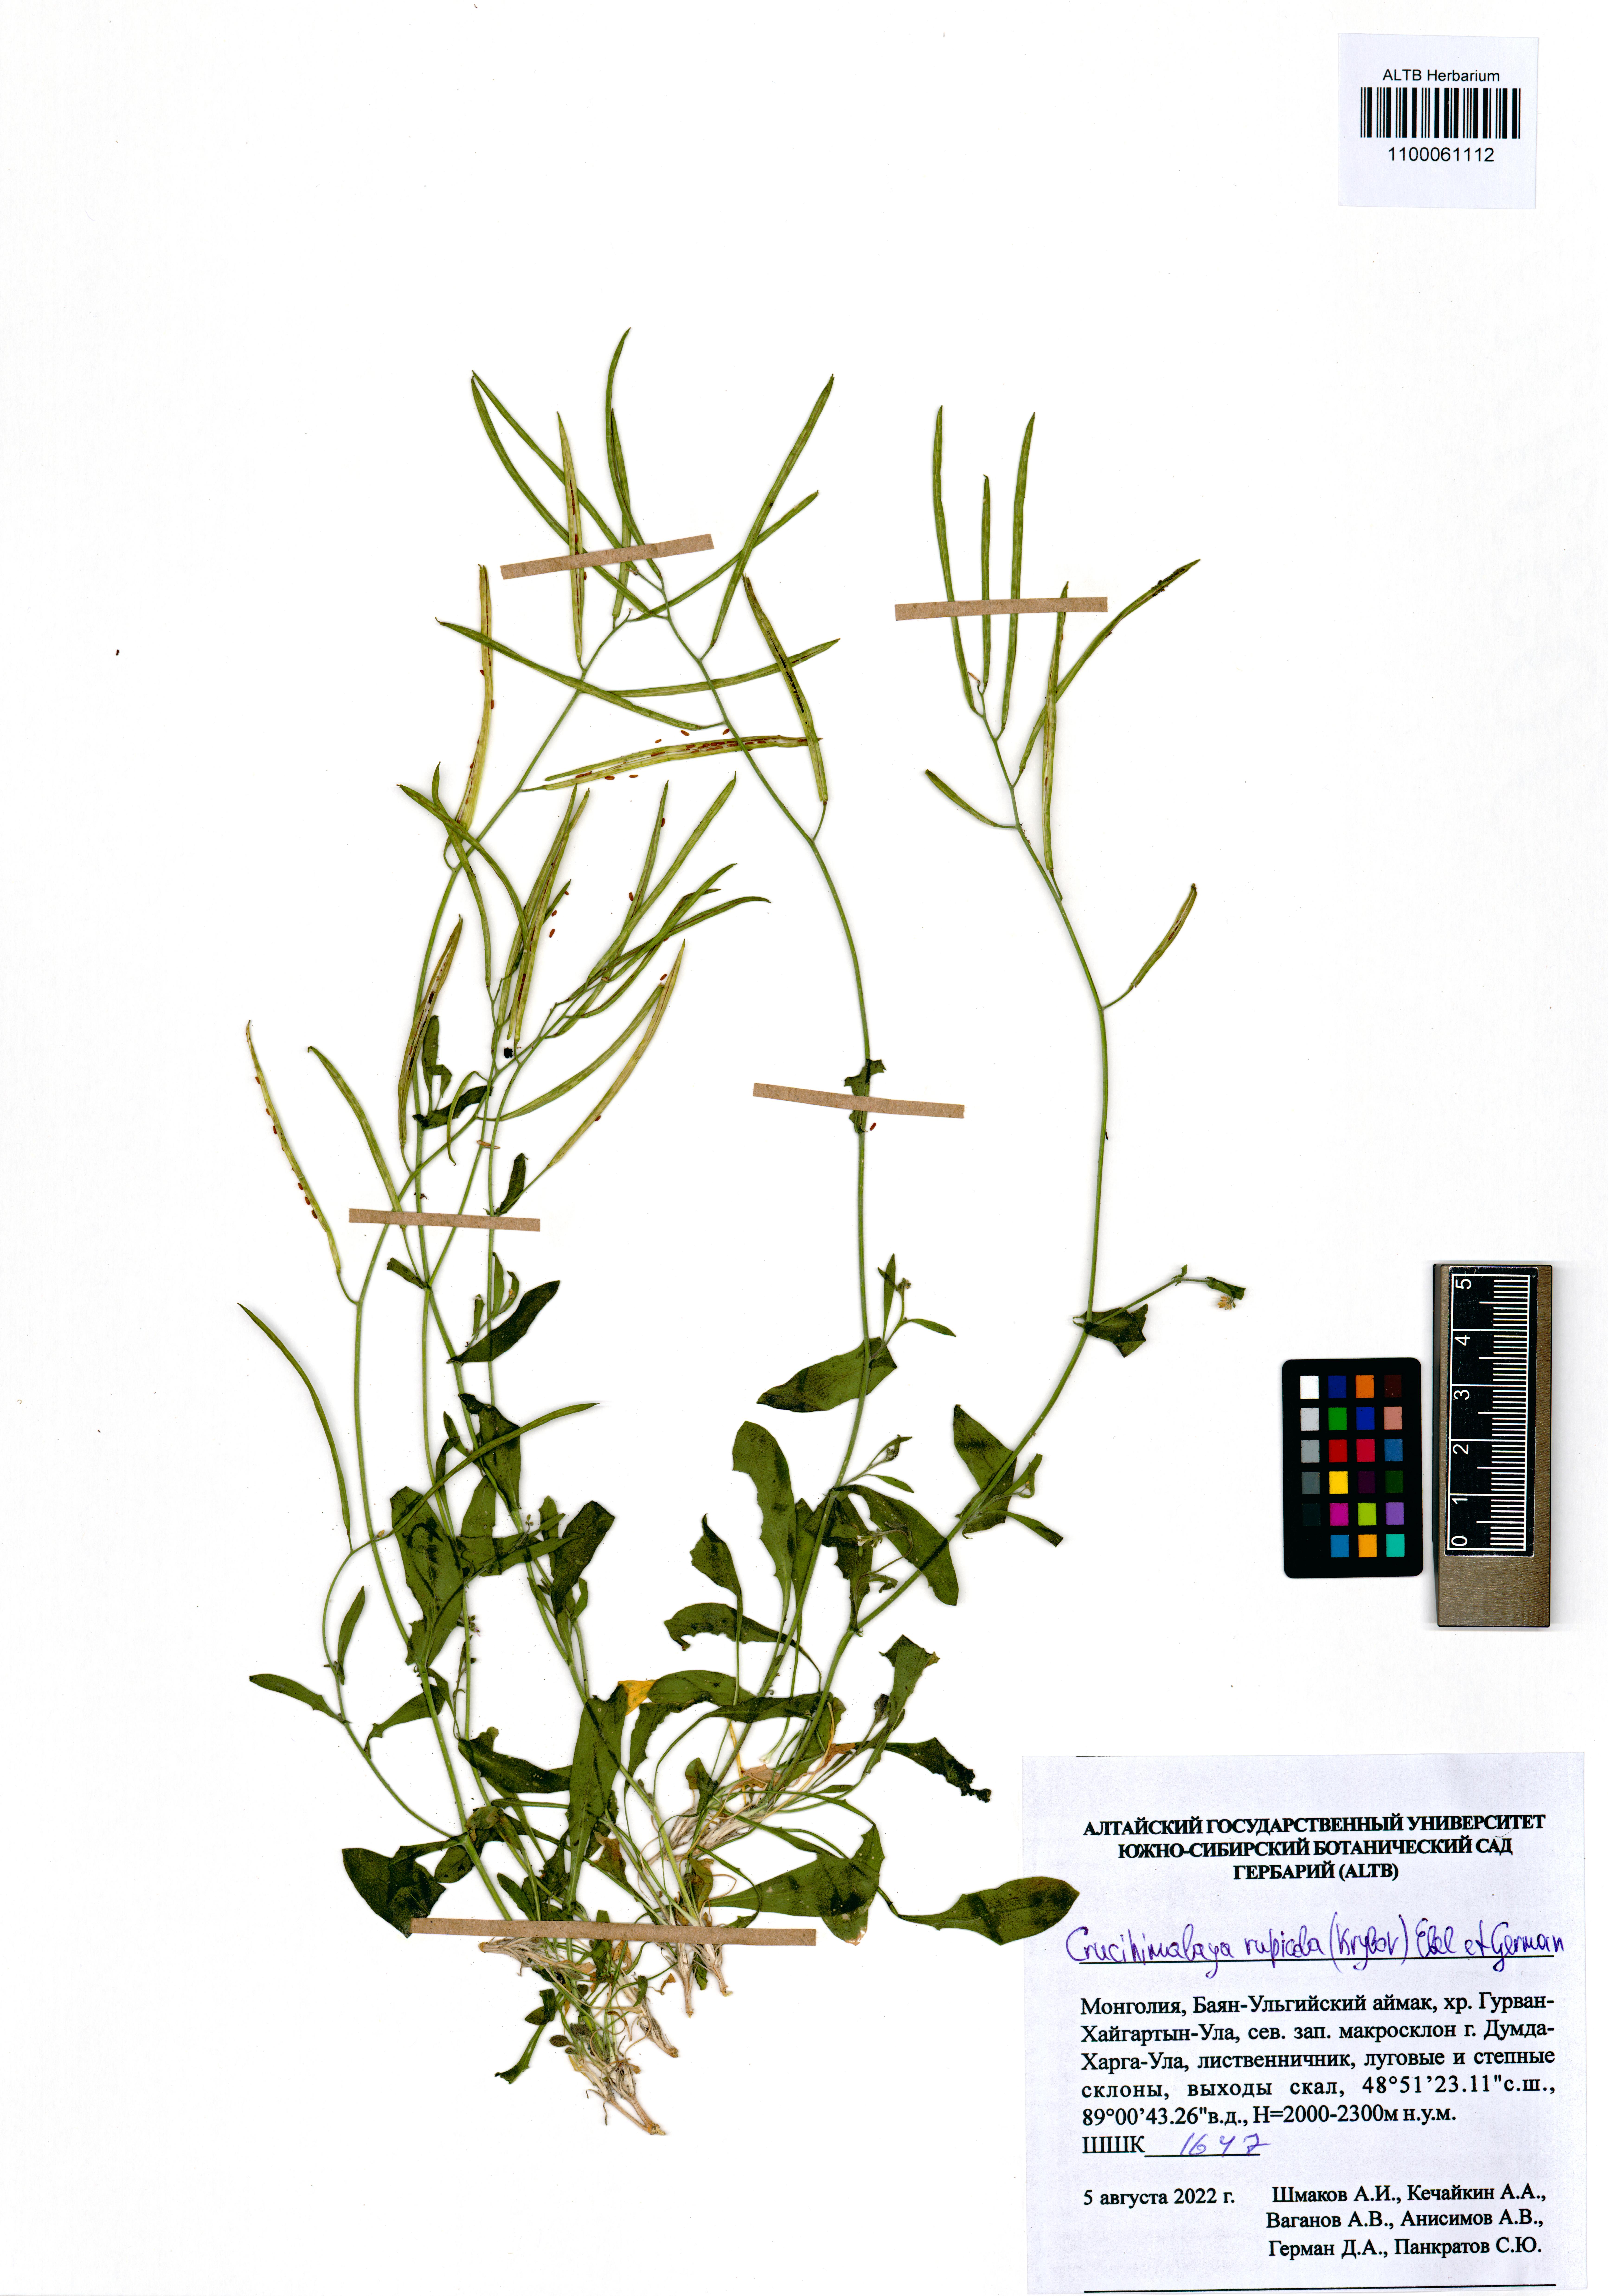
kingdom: Plantae
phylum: Tracheophyta
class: Magnoliopsida
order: Brassicales
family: Brassicaceae
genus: Crucihimalaya
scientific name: Crucihimalaya rupicola
